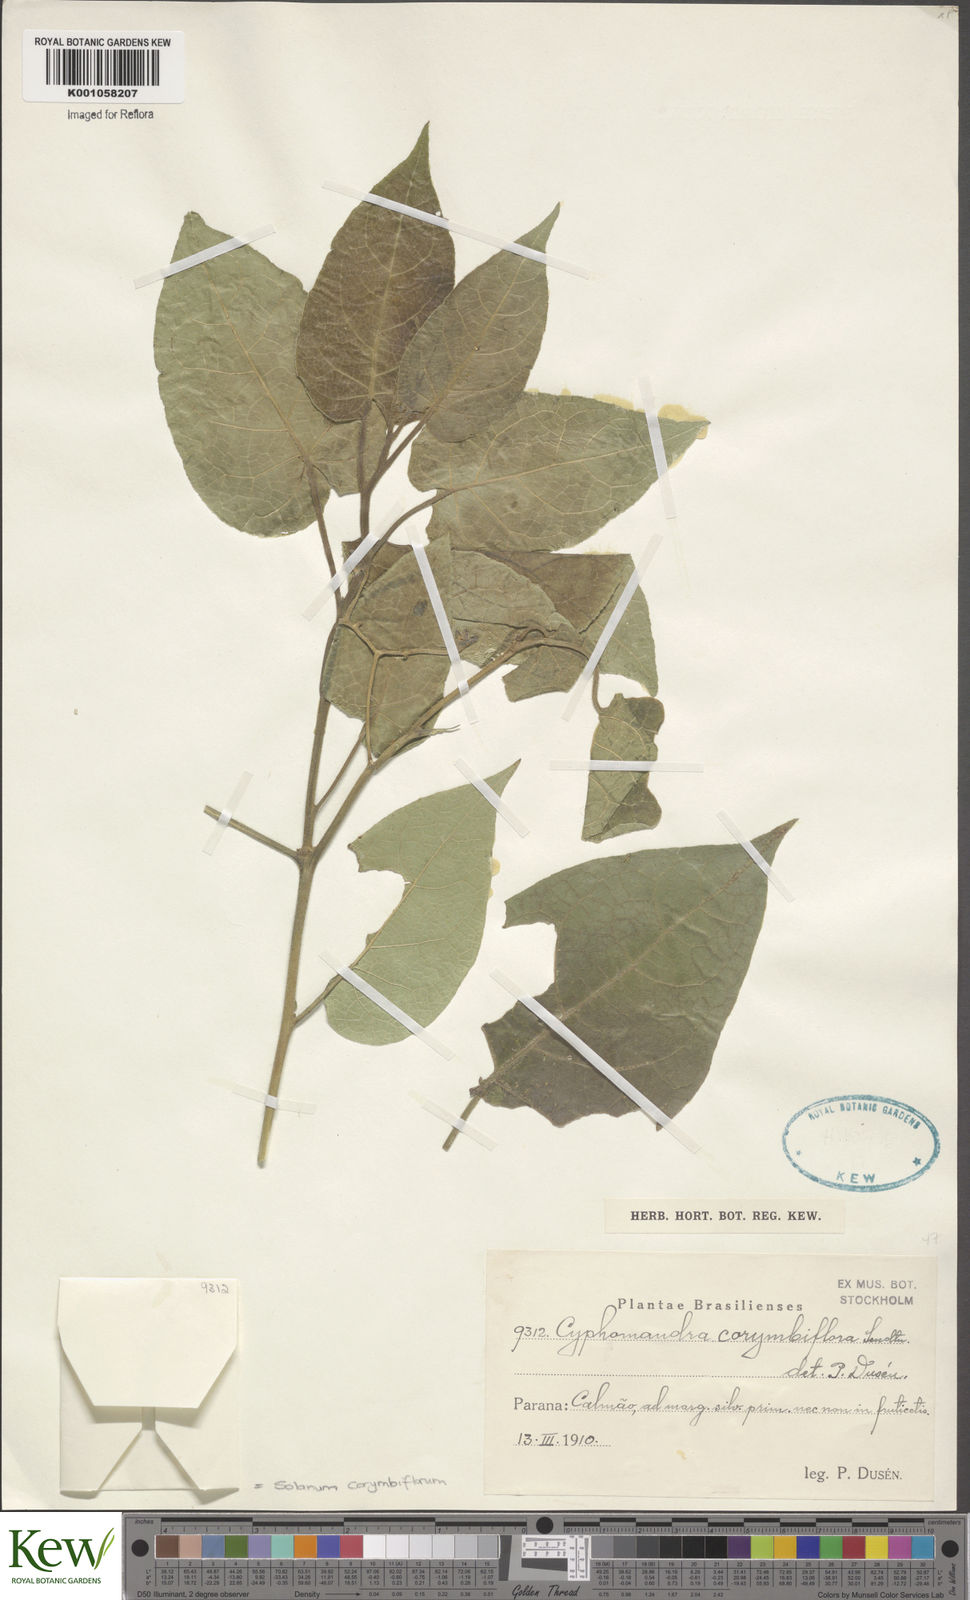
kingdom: Plantae
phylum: Tracheophyta
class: Magnoliopsida
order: Solanales
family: Solanaceae
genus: Solanum
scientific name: Solanum corymbiflorum
